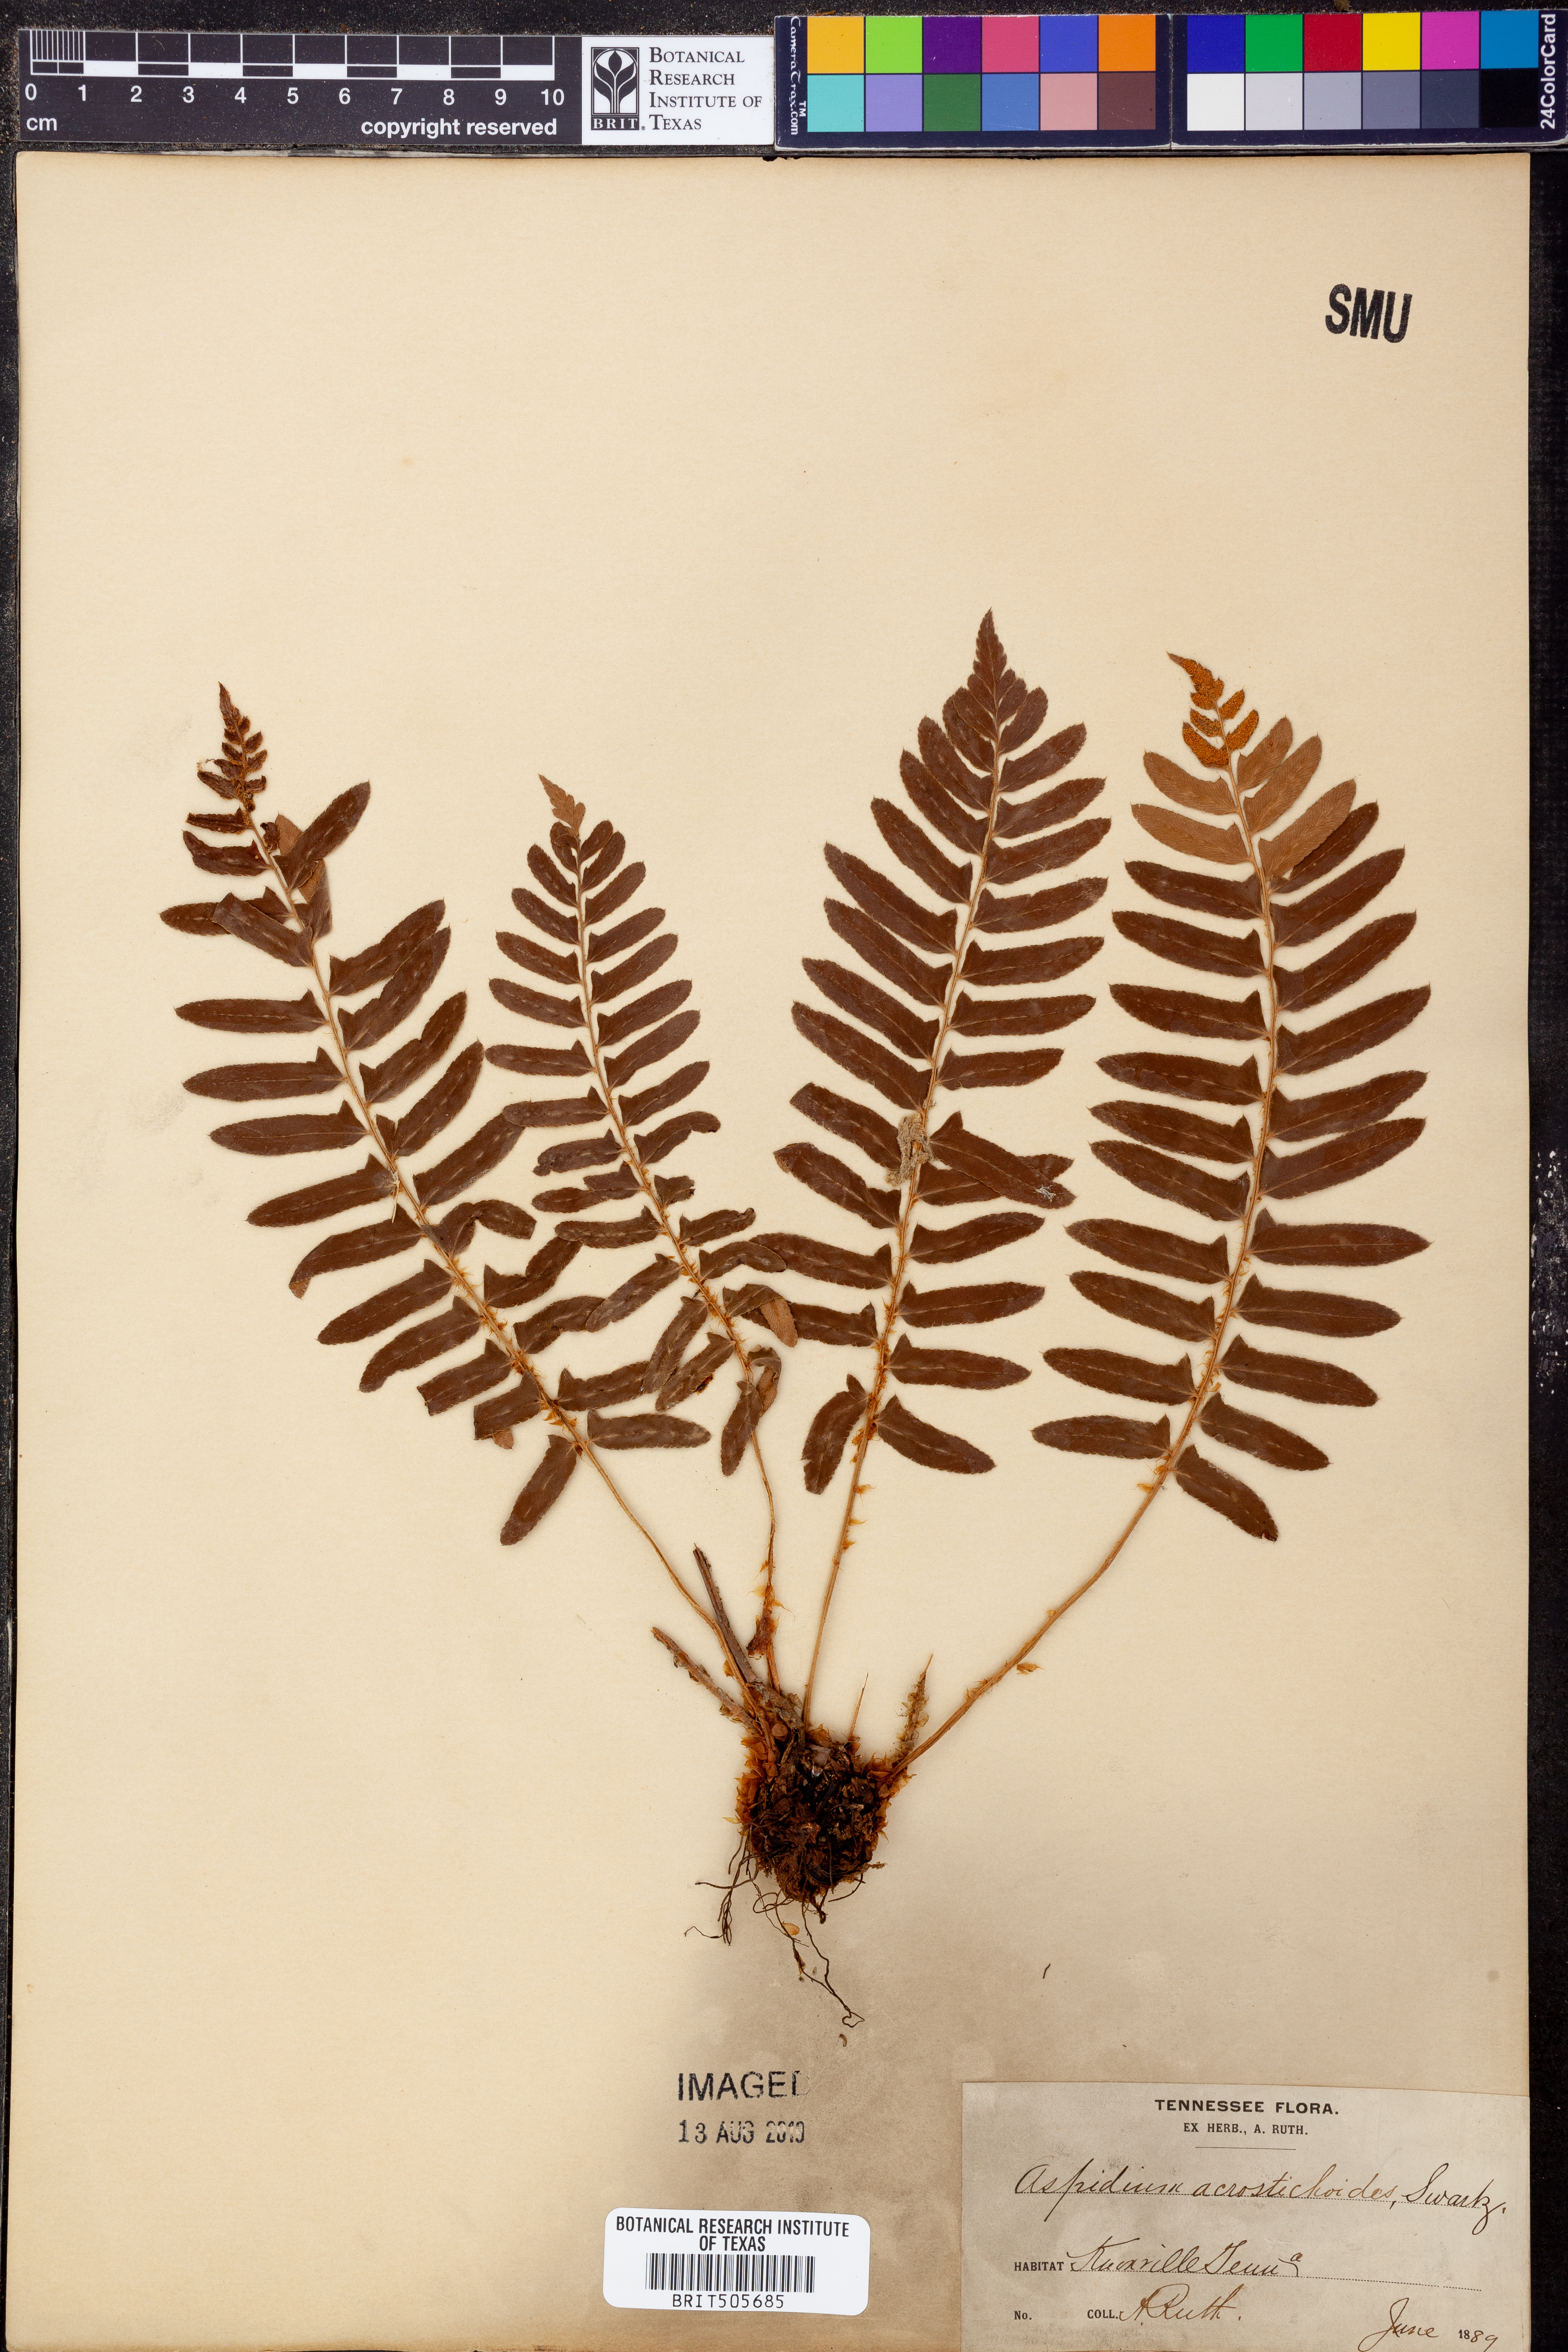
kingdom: Plantae
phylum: Tracheophyta
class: Polypodiopsida
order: Polypodiales
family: Dryopteridaceae
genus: Polystichum
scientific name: Polystichum acrostichoides
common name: Christmas fern
